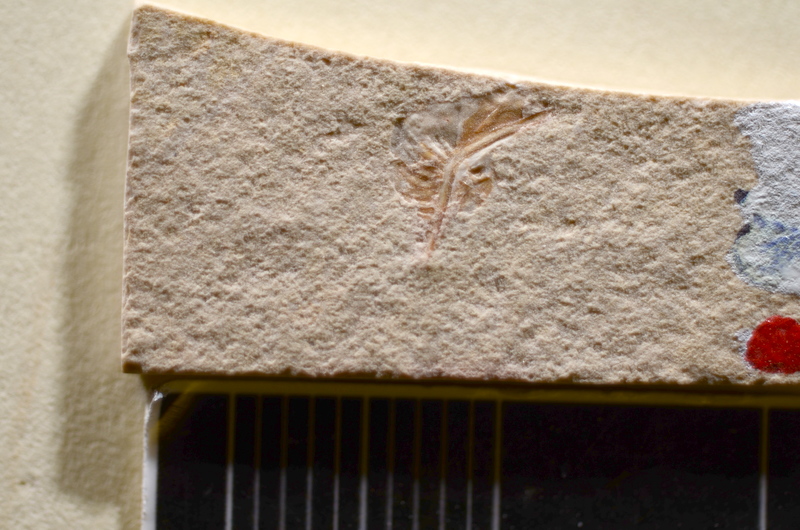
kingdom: Animalia
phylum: Chordata
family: Ascalaboidae
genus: Tharsis
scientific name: Tharsis dubius
